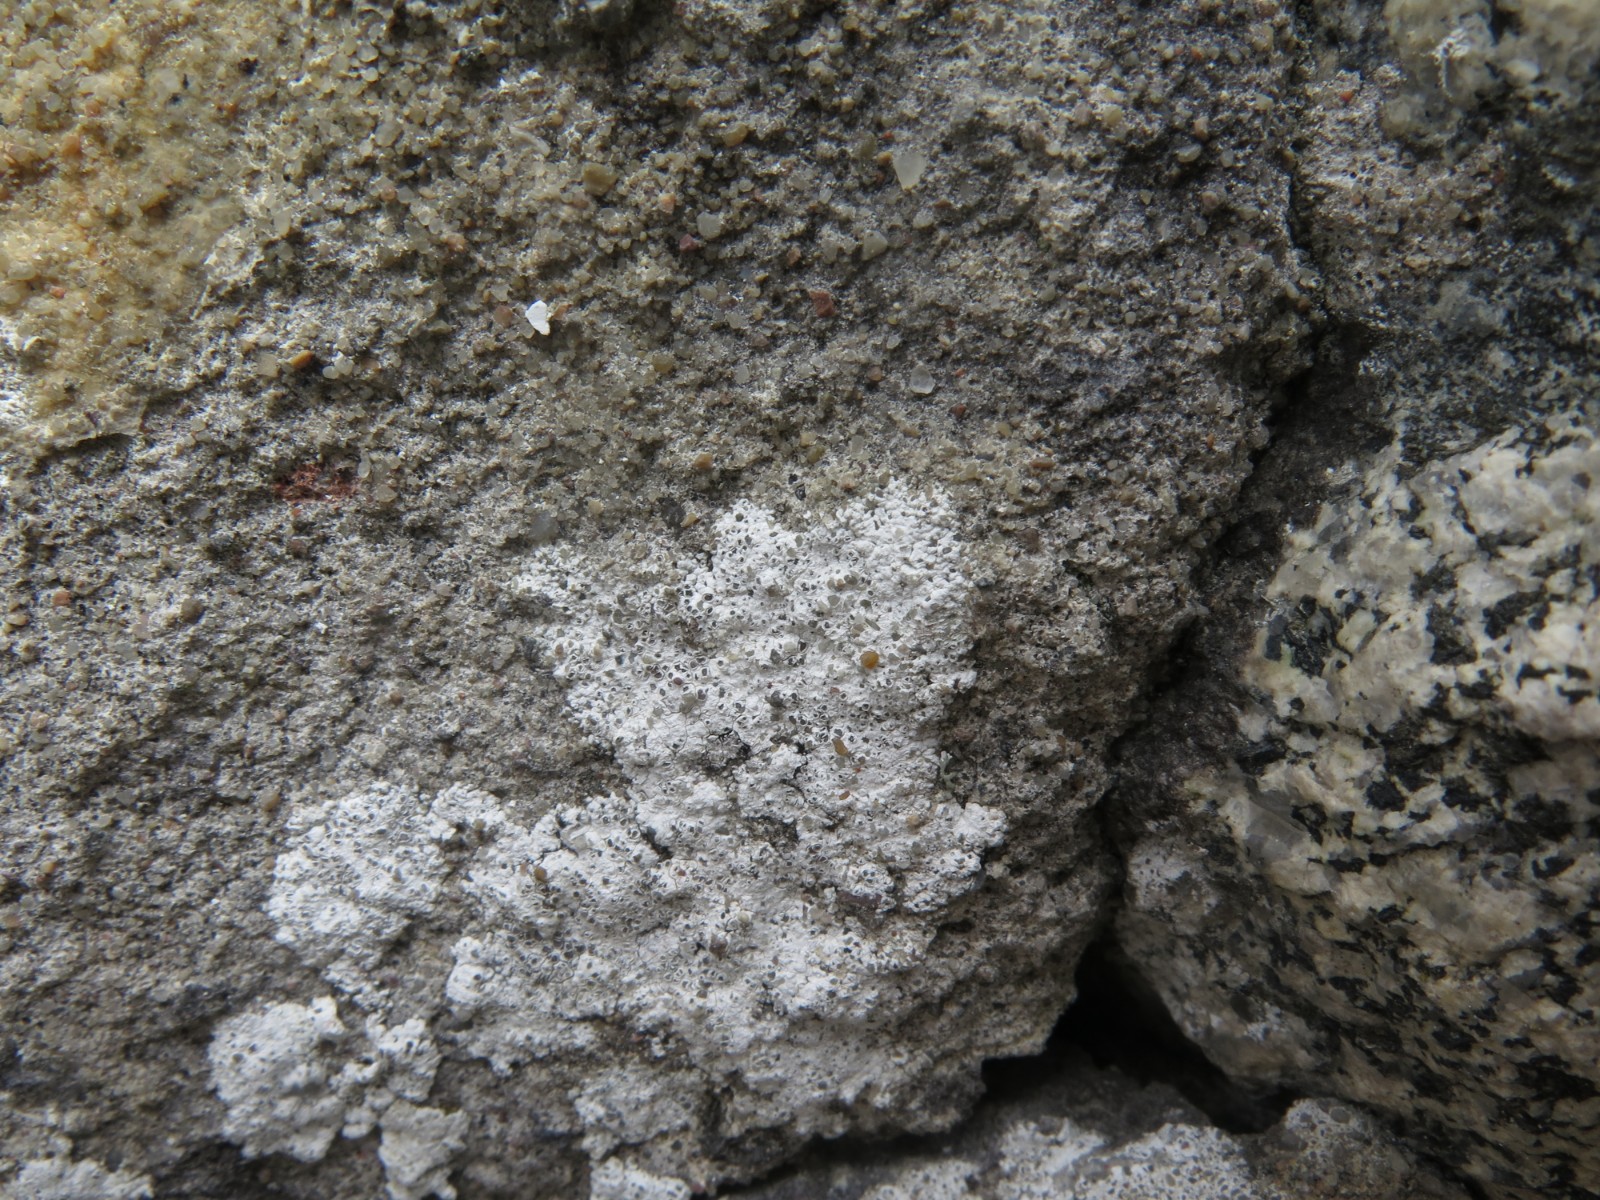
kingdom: Fungi
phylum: Ascomycota
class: Lecanoromycetes
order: Lecanorales
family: Lecanoraceae
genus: Polyozosia
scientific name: Polyozosia albescens
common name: cement-kantskivelav
